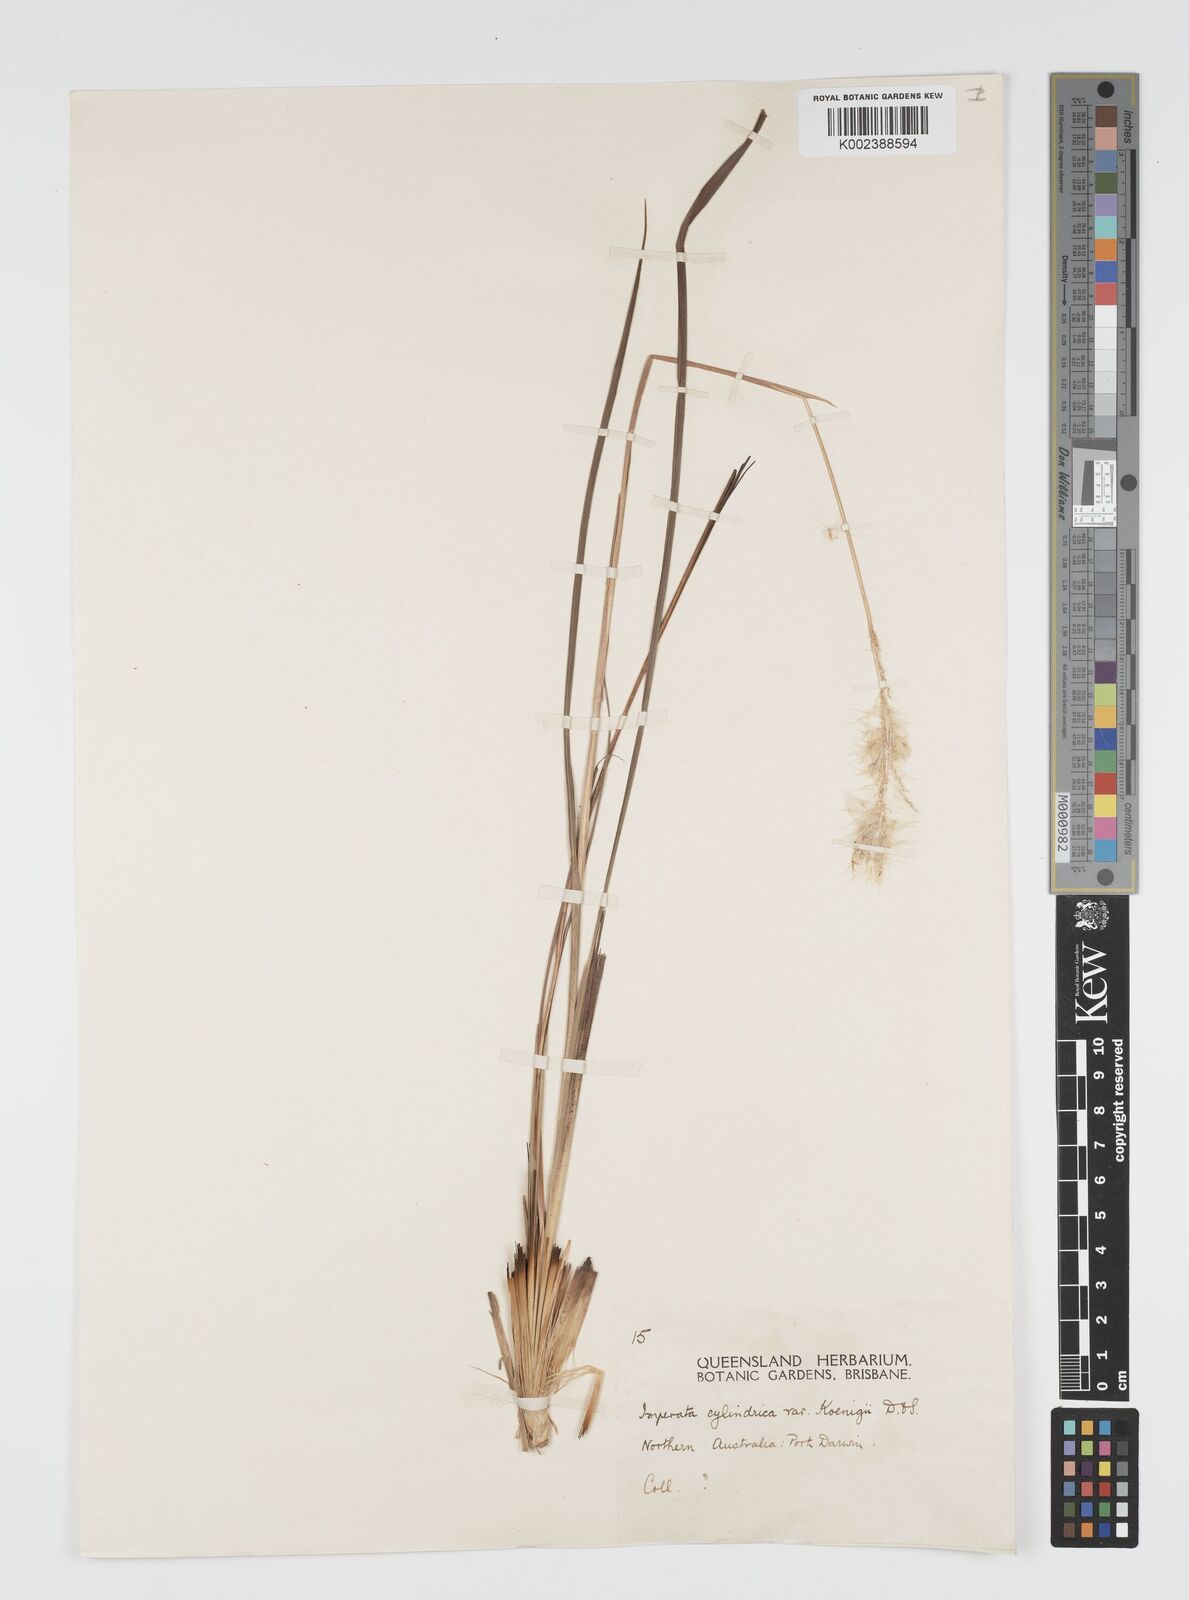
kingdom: Plantae
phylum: Tracheophyta
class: Liliopsida
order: Poales
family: Poaceae
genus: Imperata
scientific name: Imperata cylindrica
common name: Cogongrass
